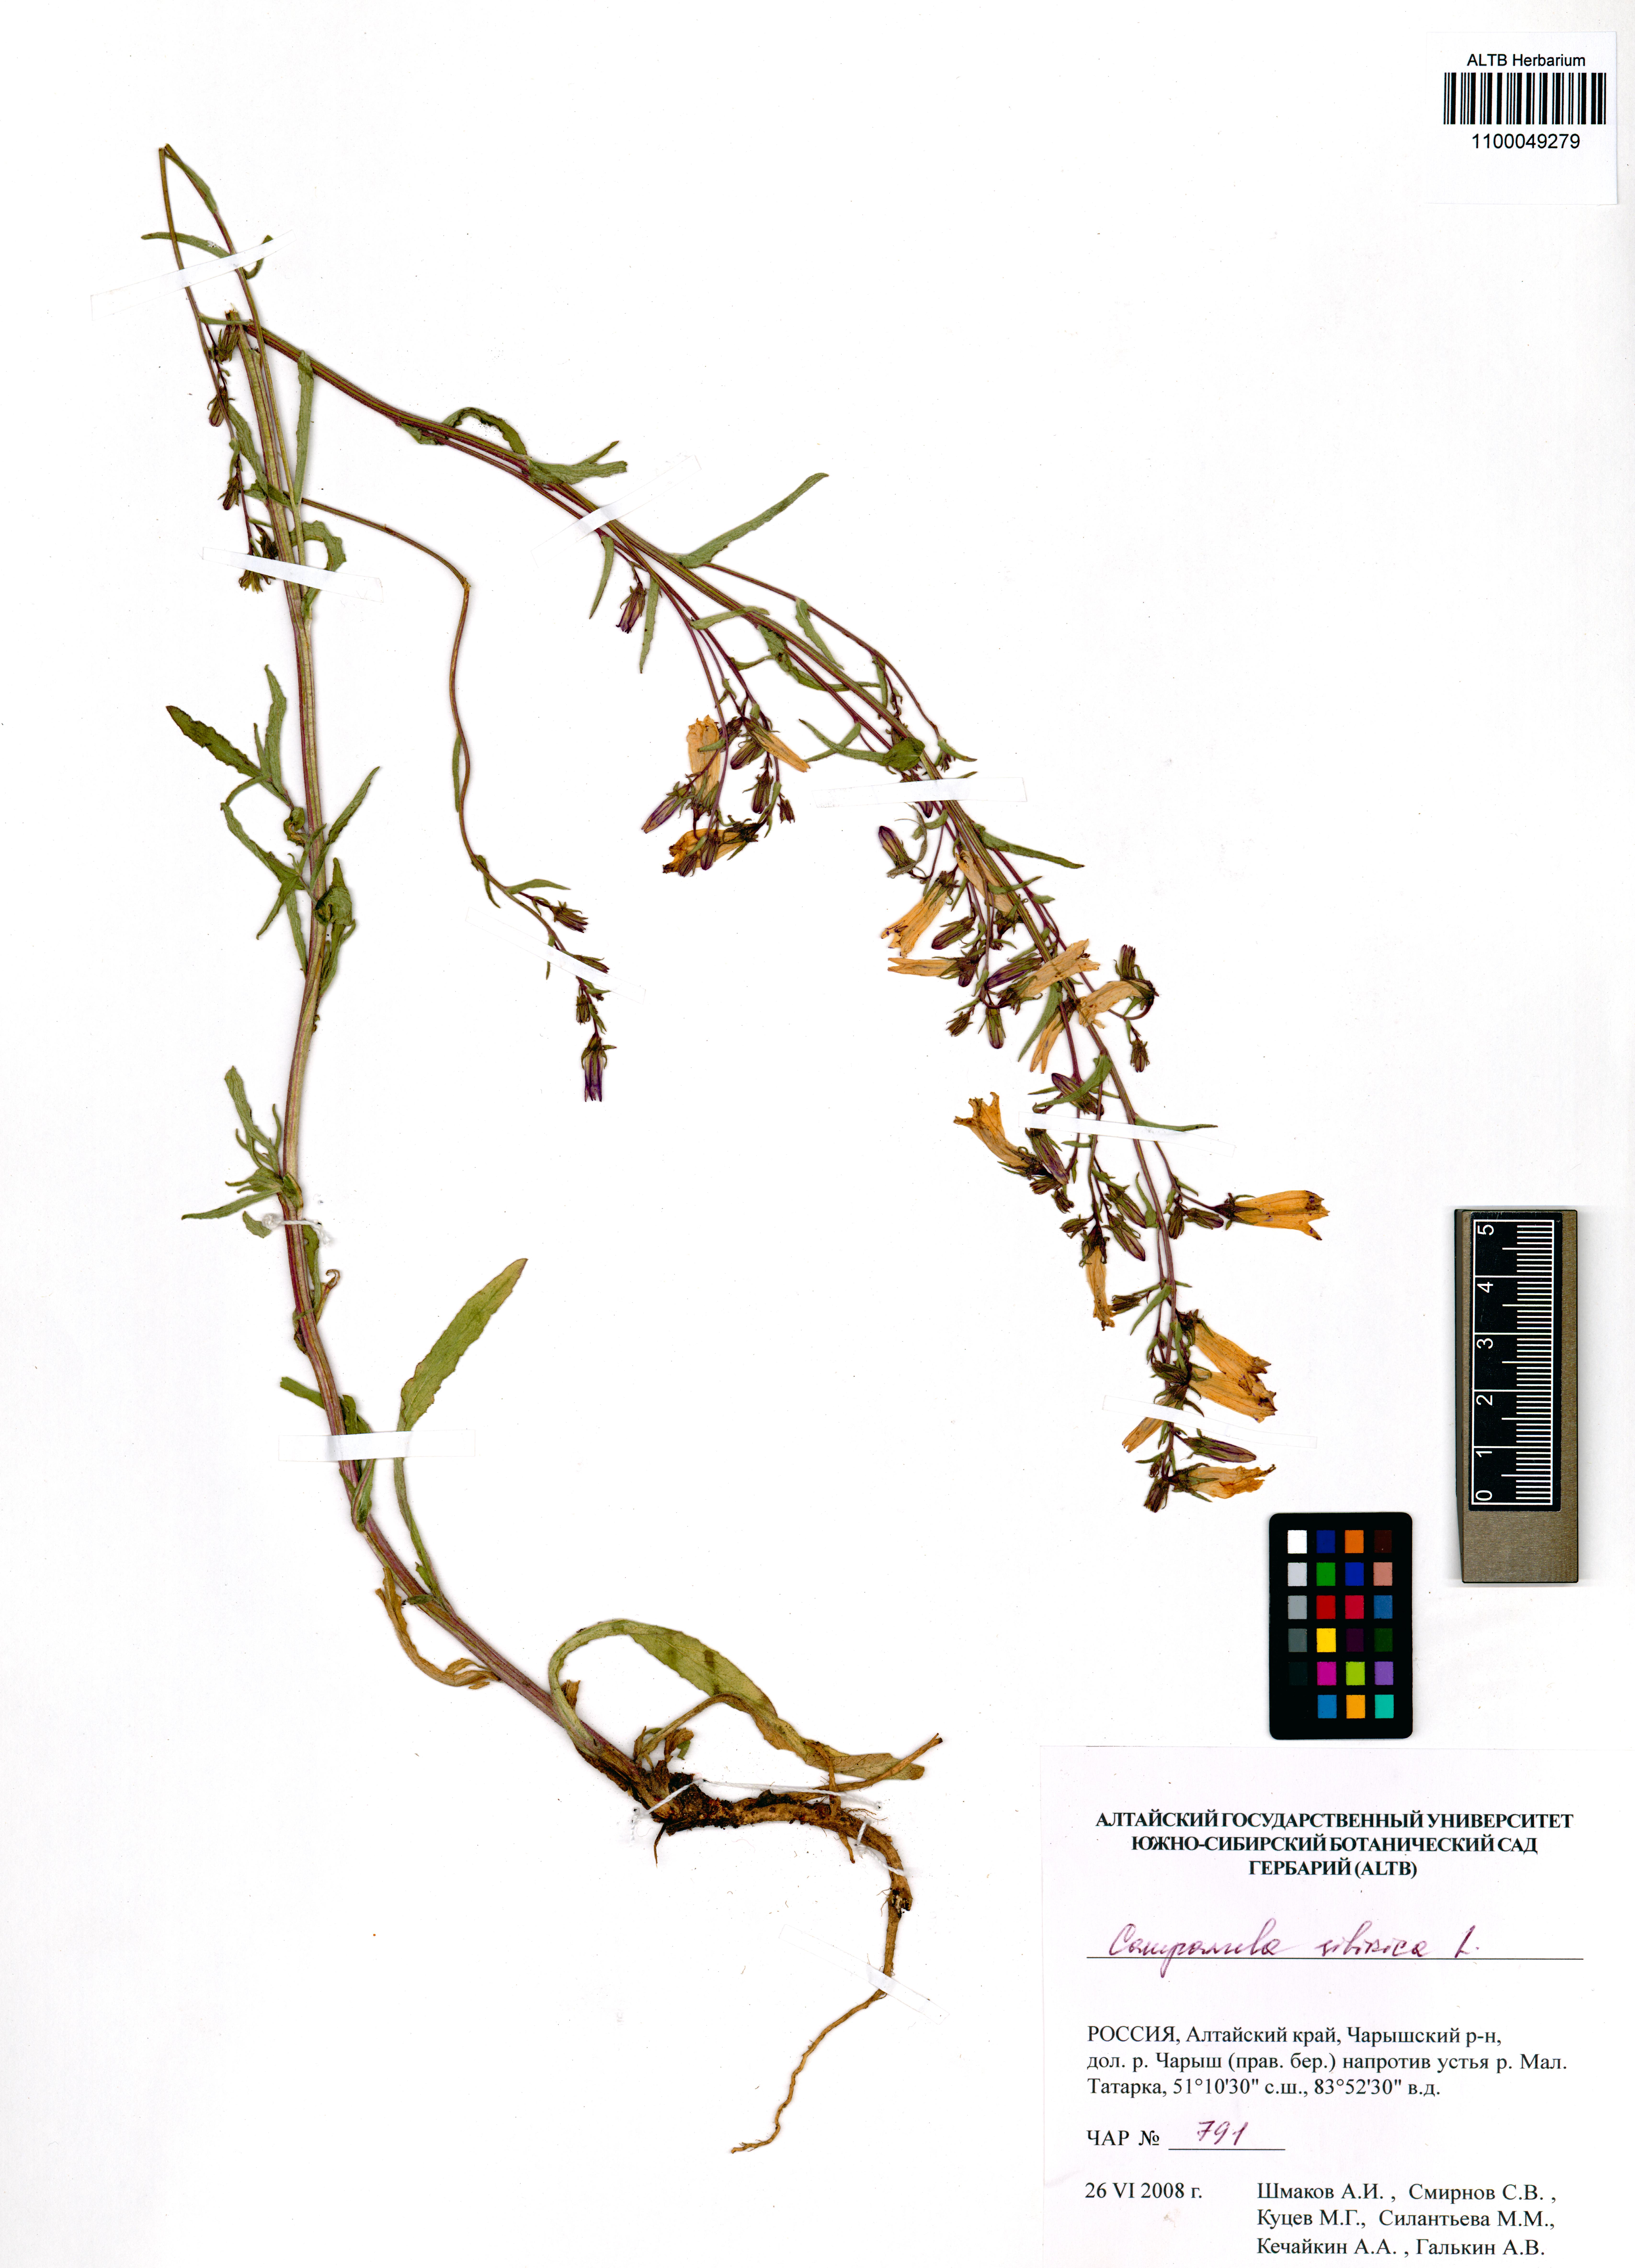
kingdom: Plantae
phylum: Tracheophyta
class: Magnoliopsida
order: Asterales
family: Campanulaceae
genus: Campanula
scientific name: Campanula sibirica
